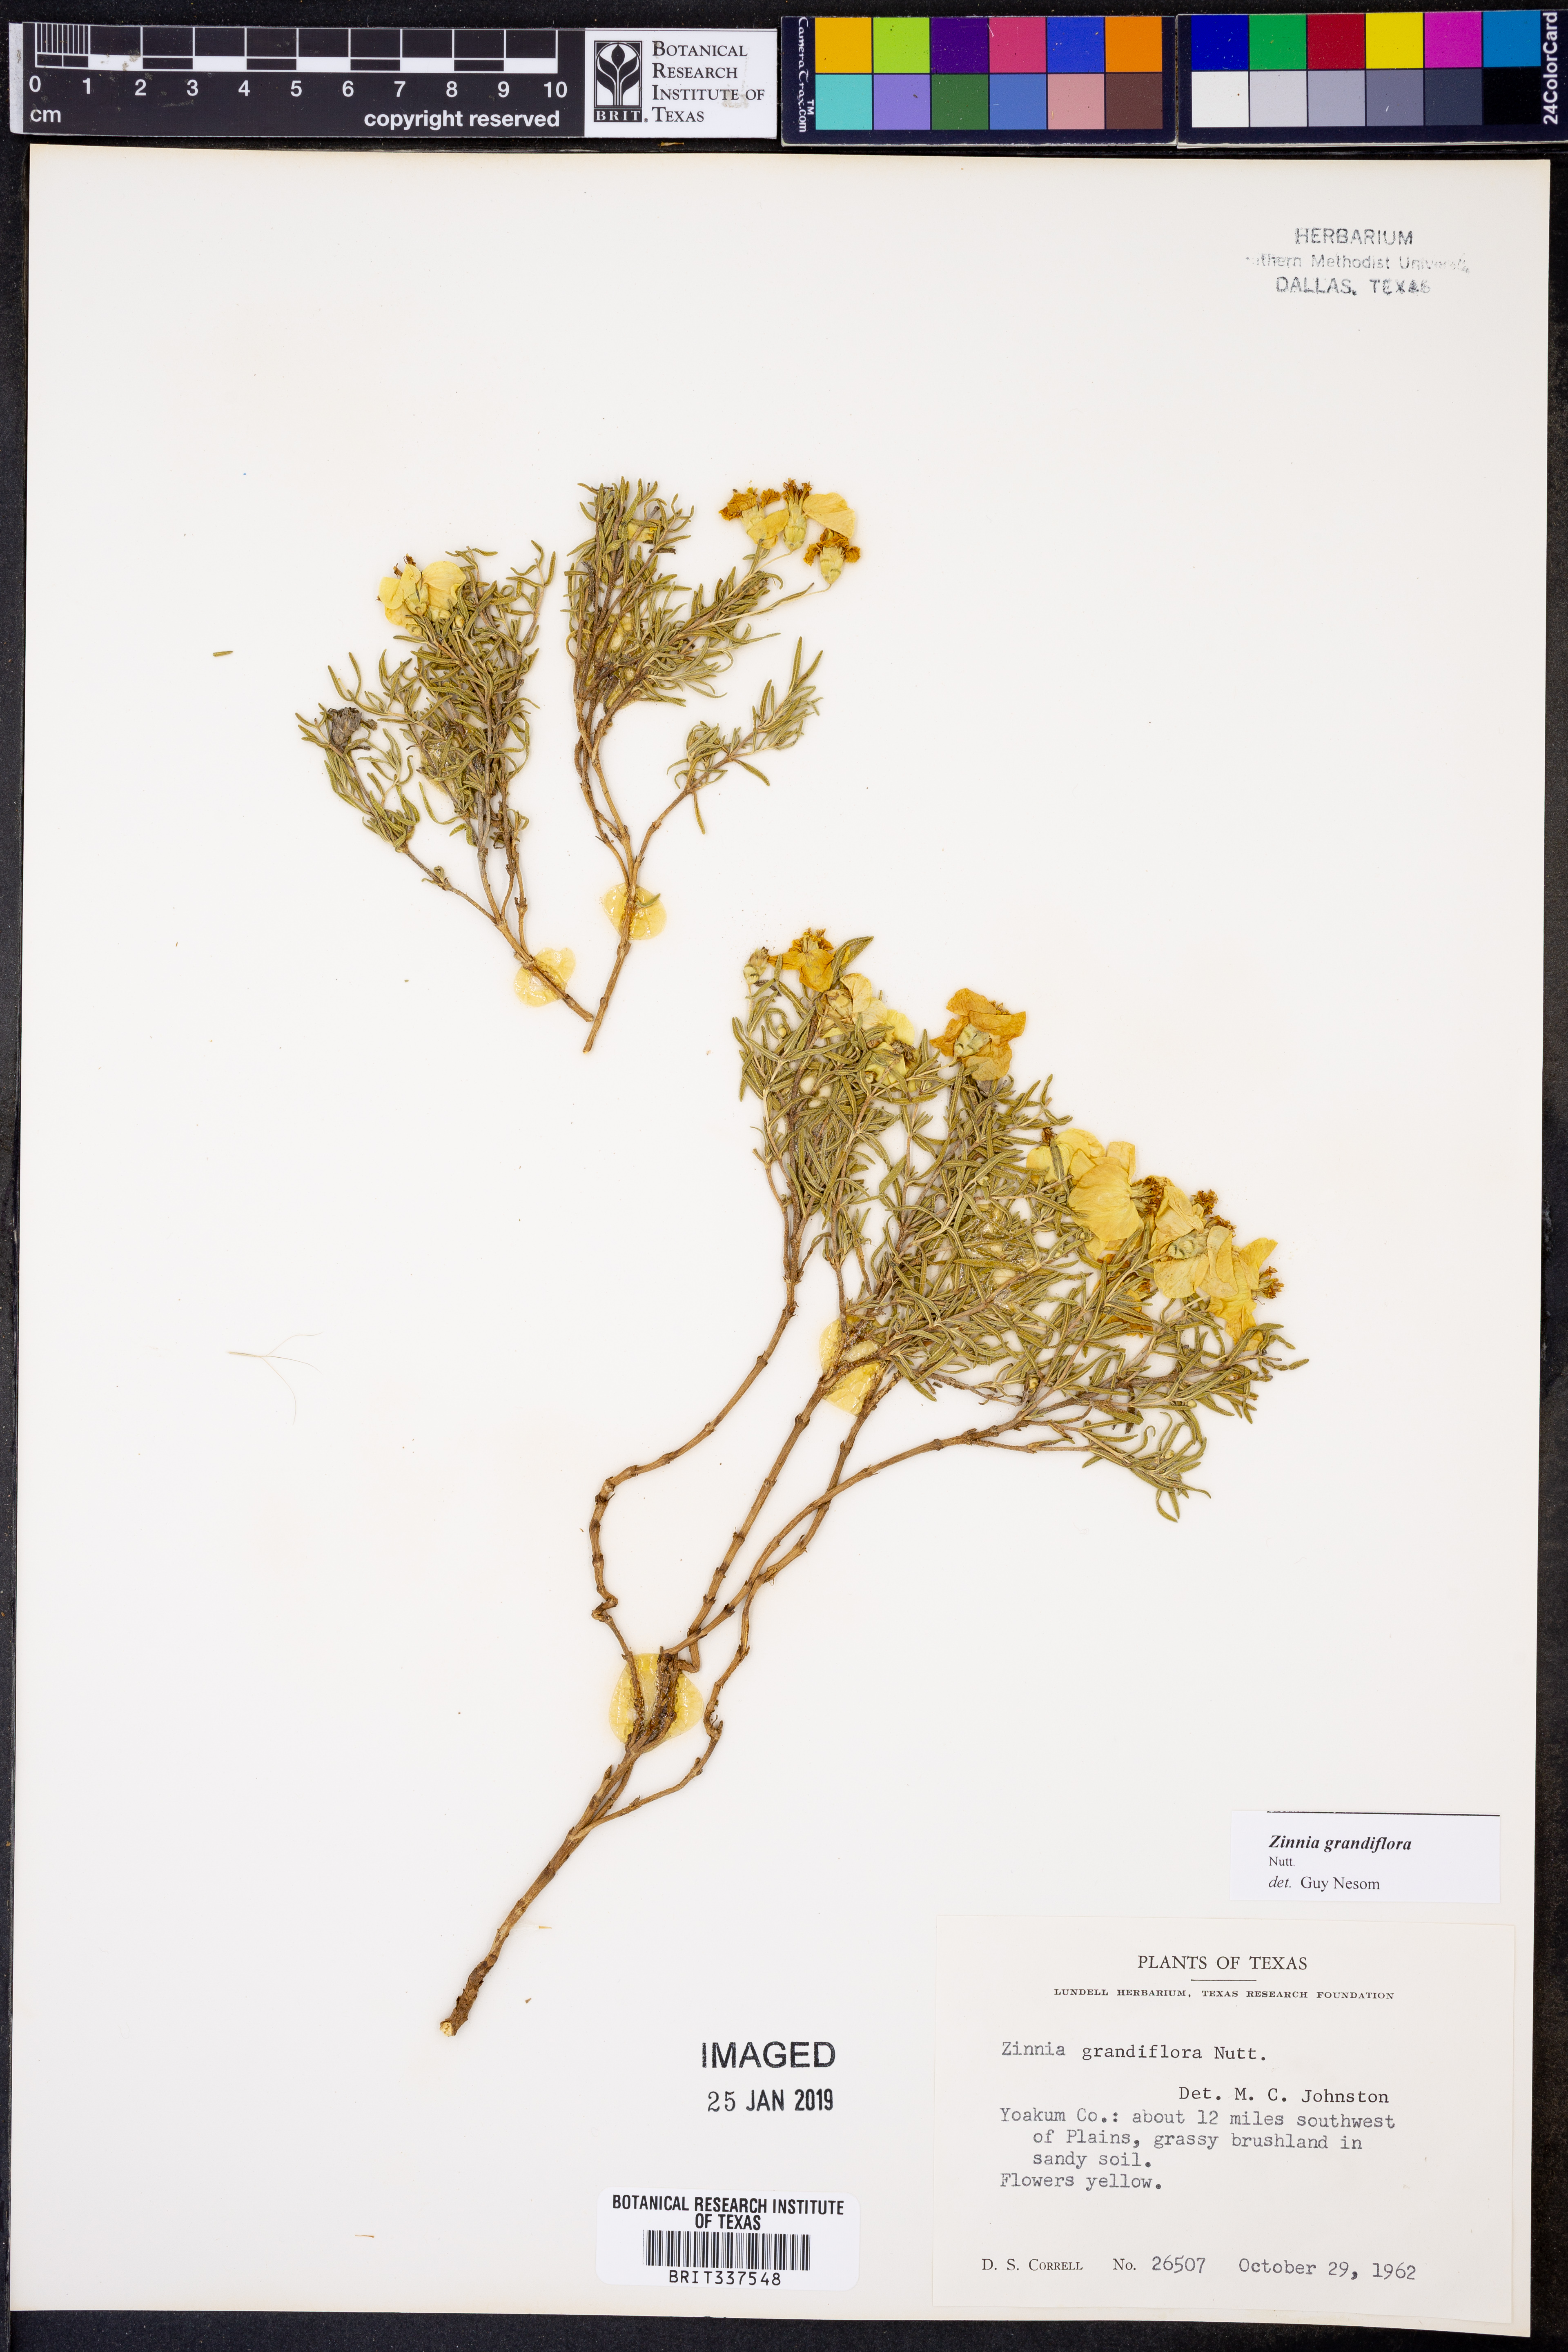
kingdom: Plantae
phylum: Tracheophyta
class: Magnoliopsida
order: Asterales
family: Asteraceae
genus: Zinnia
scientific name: Zinnia grandiflora
